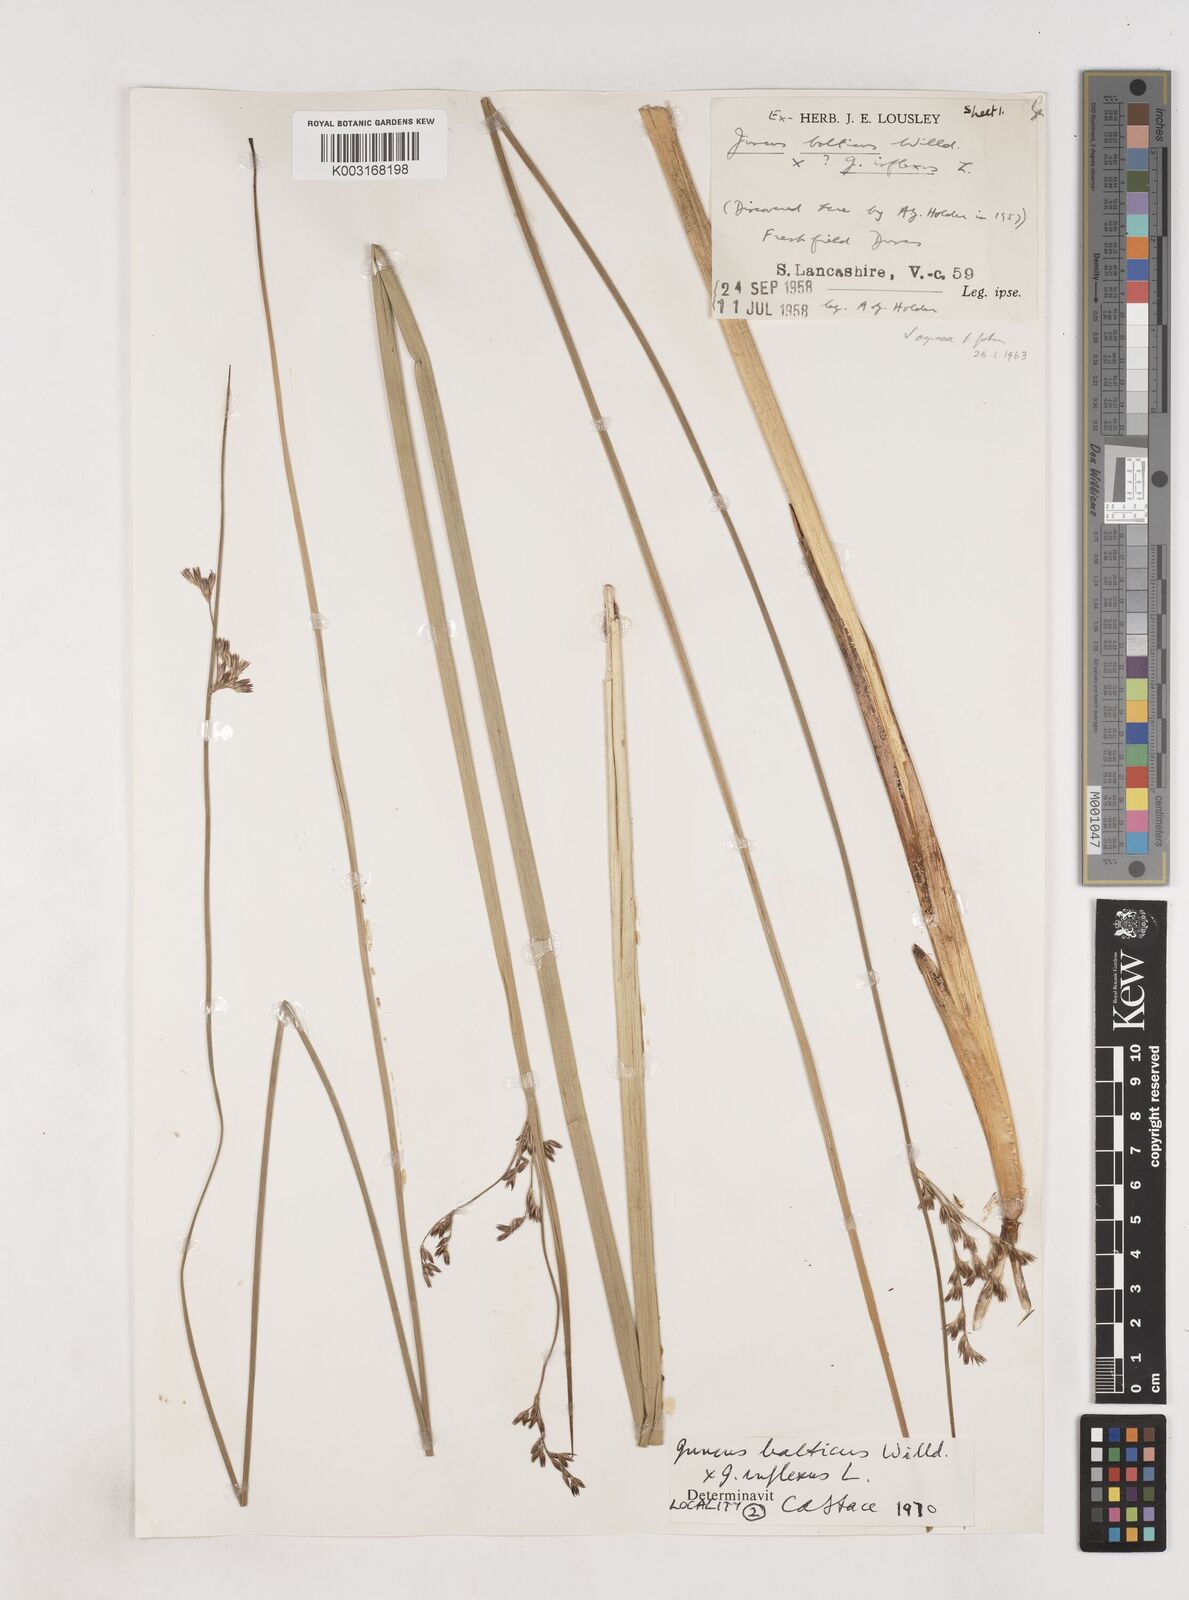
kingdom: Plantae
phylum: Tracheophyta
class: Liliopsida
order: Poales
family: Juncaceae
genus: Juncus
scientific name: Juncus balticus
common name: Baltic rush
